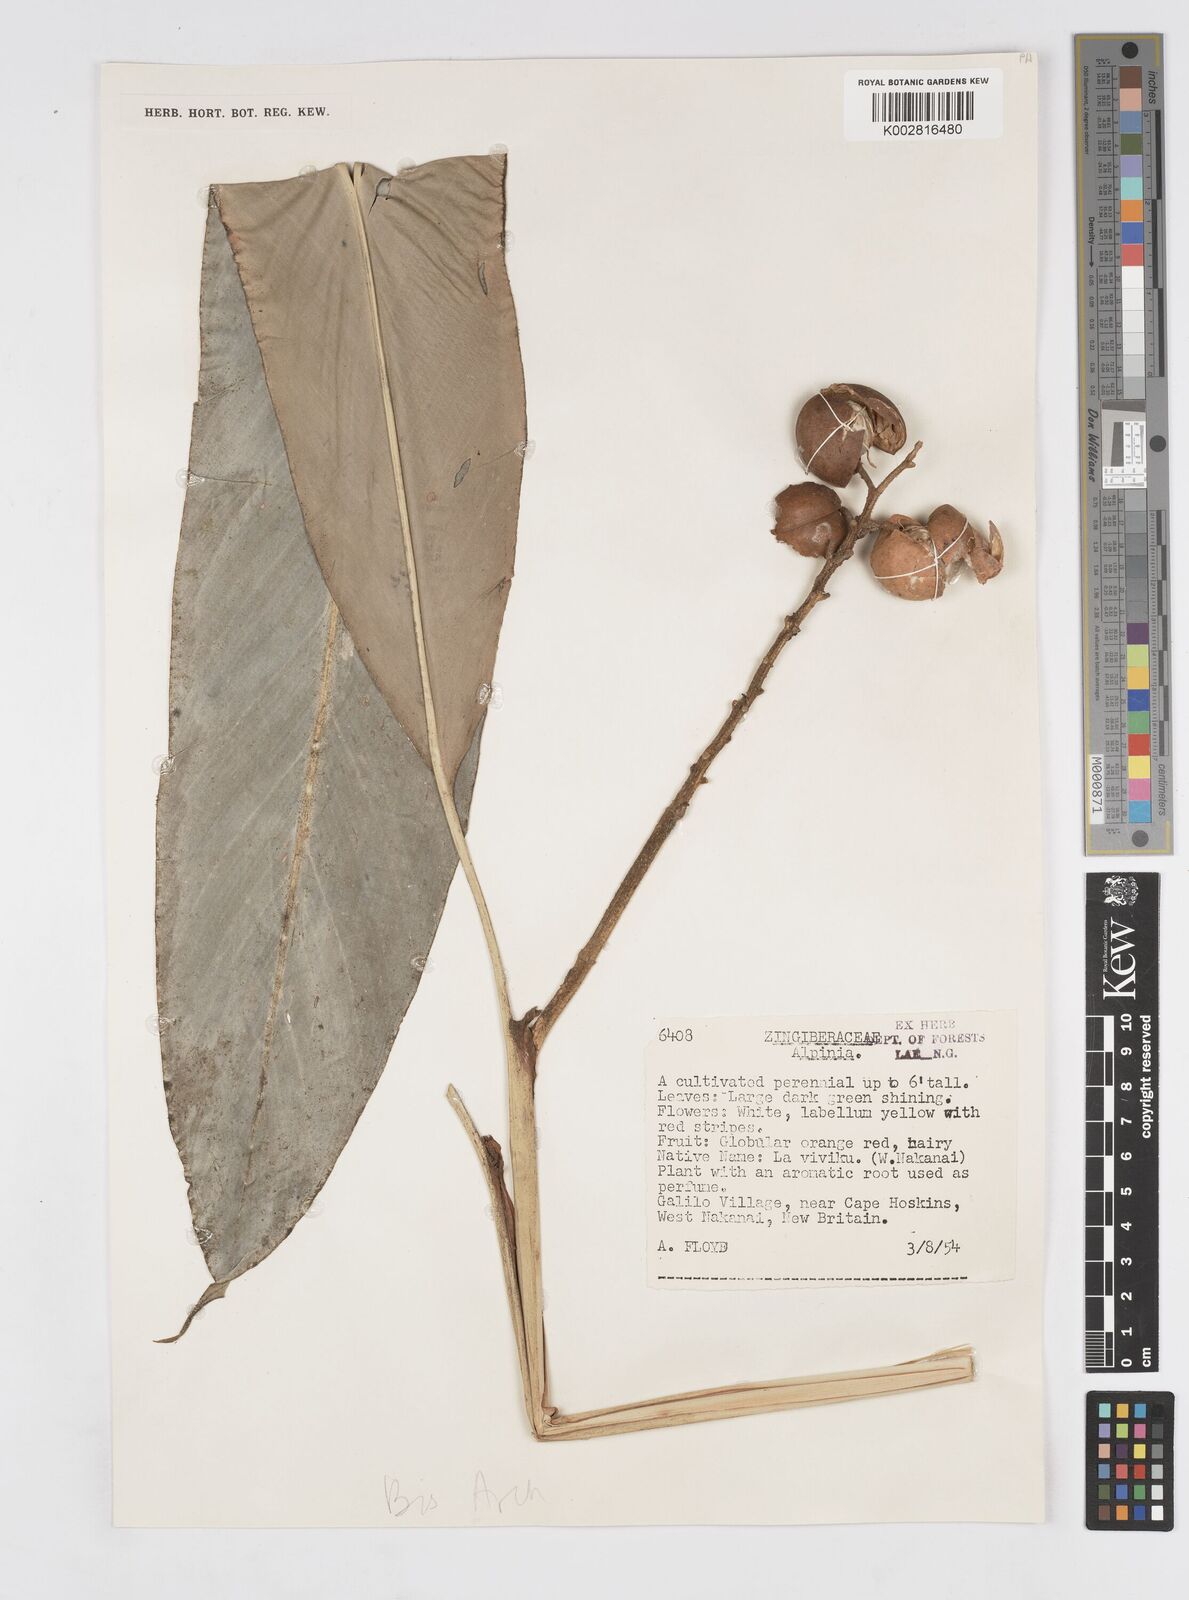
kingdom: Plantae
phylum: Tracheophyta
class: Liliopsida
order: Zingiberales
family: Zingiberaceae
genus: Alpinia
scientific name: Alpinia
